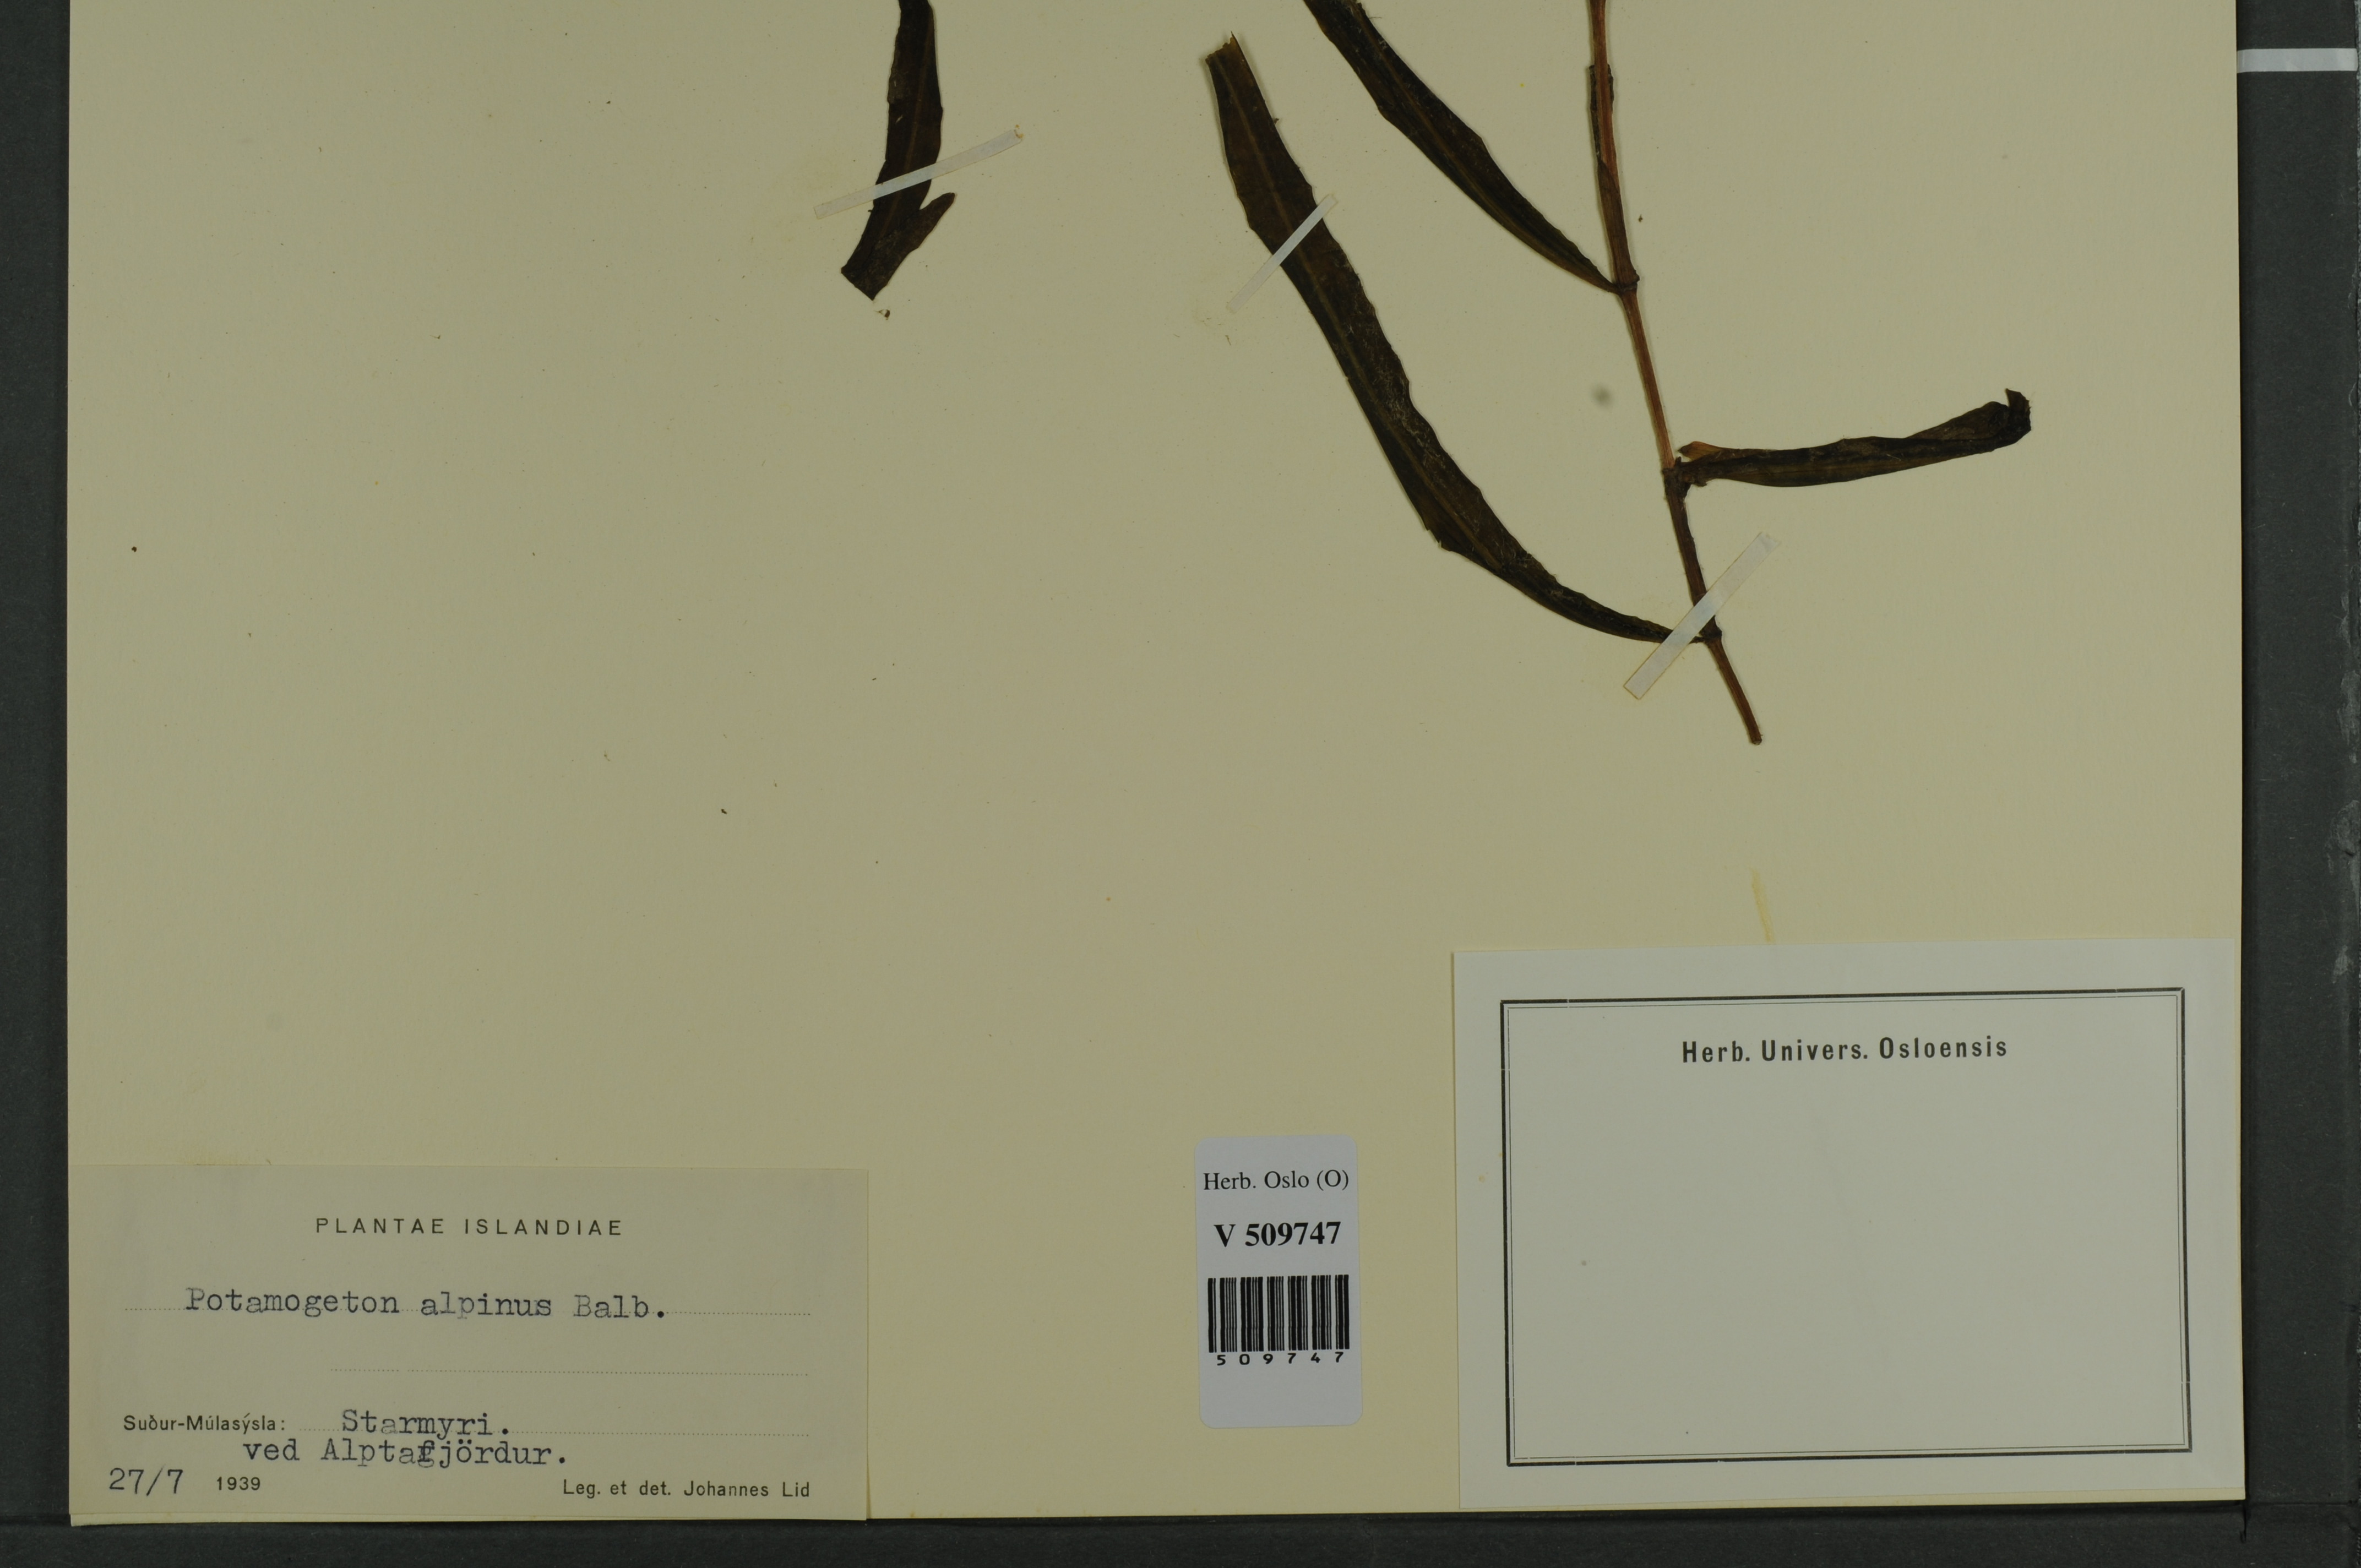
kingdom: Plantae
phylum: Tracheophyta
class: Liliopsida
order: Alismatales
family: Potamogetonaceae
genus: Potamogeton
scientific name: Potamogeton alpinus
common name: Red pondweed
